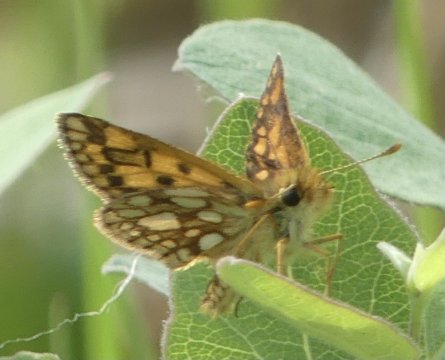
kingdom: Animalia
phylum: Arthropoda
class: Insecta
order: Lepidoptera
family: Hesperiidae
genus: Carterocephalus
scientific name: Carterocephalus palaemon
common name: Chequered Skipper
